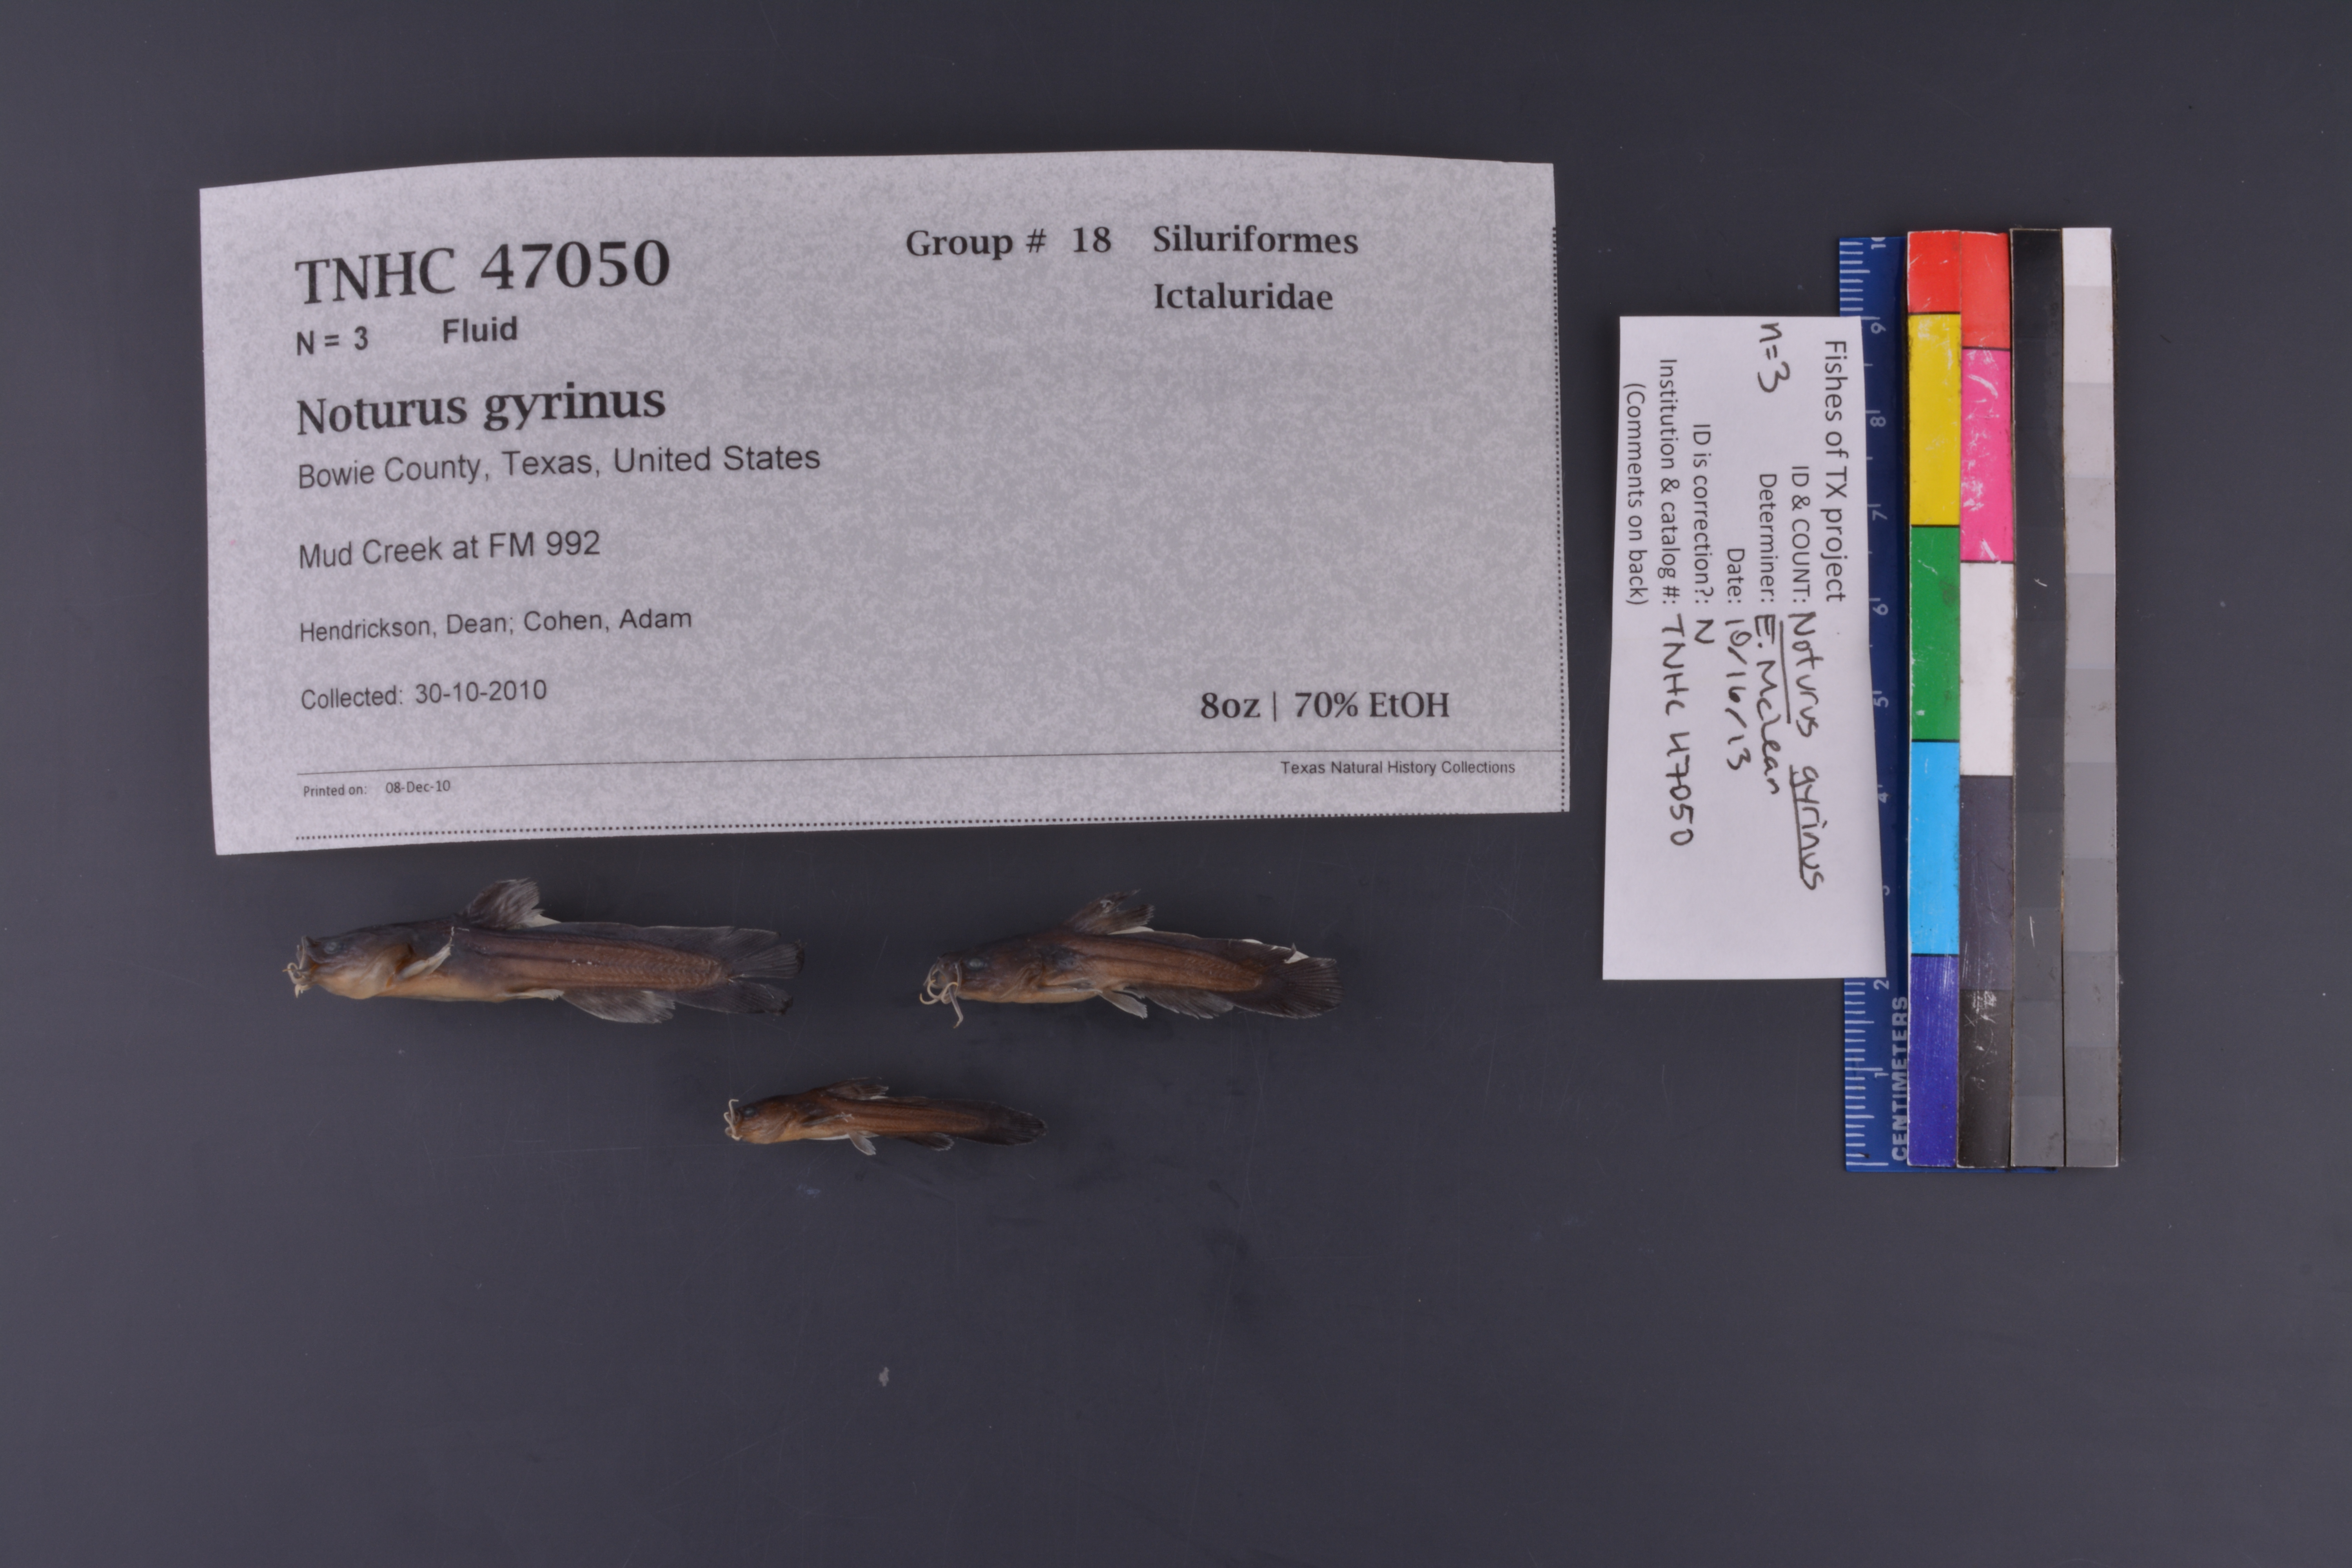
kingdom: Animalia
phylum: Chordata
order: Siluriformes
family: Ictaluridae
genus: Noturus
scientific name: Noturus gyrinus
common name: Tadpole madtom
